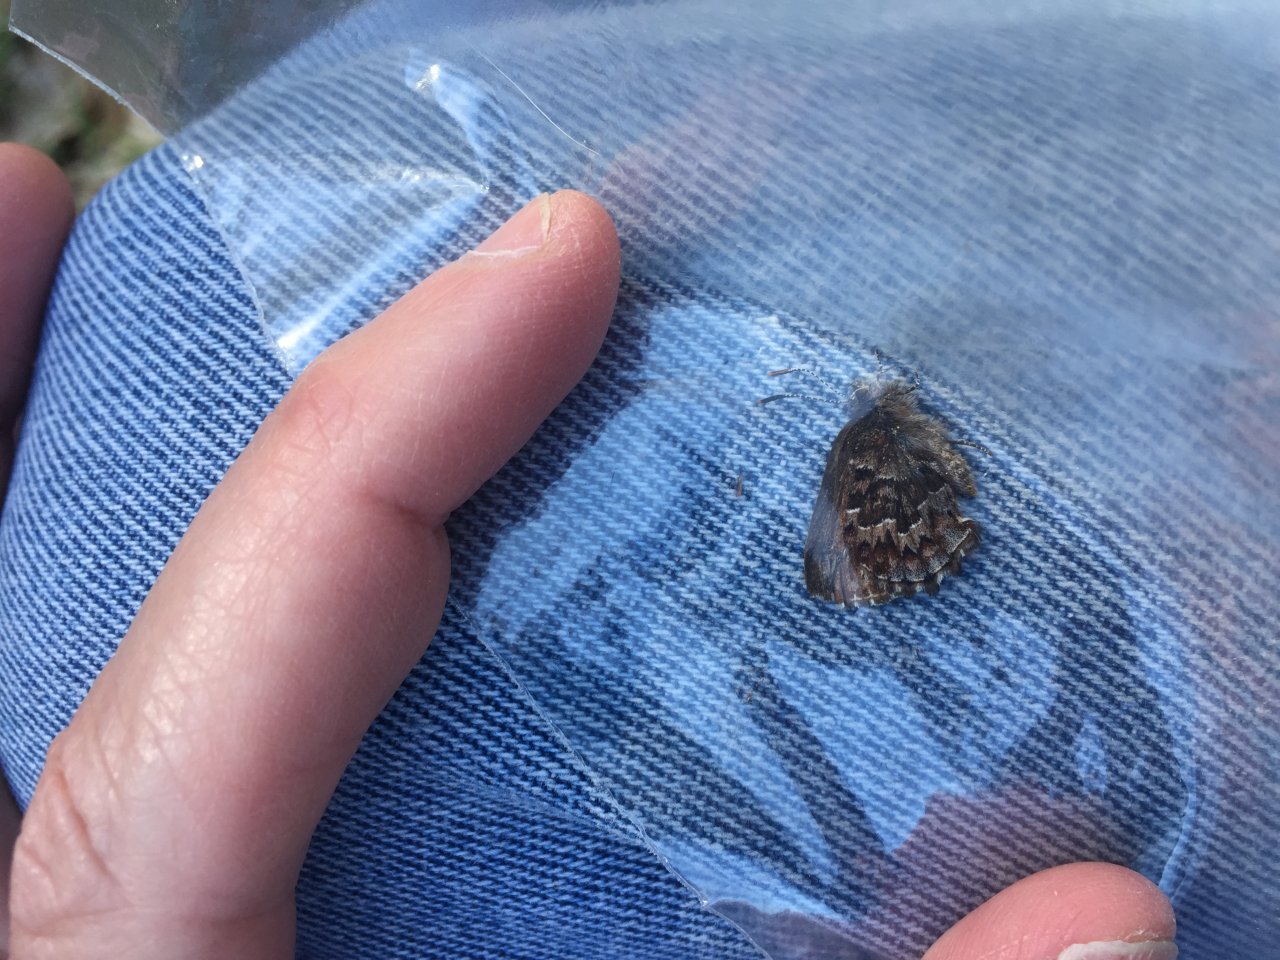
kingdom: Animalia
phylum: Arthropoda
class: Insecta
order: Lepidoptera
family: Lycaenidae
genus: Incisalia
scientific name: Incisalia niphon
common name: Eastern Pine Elfin
